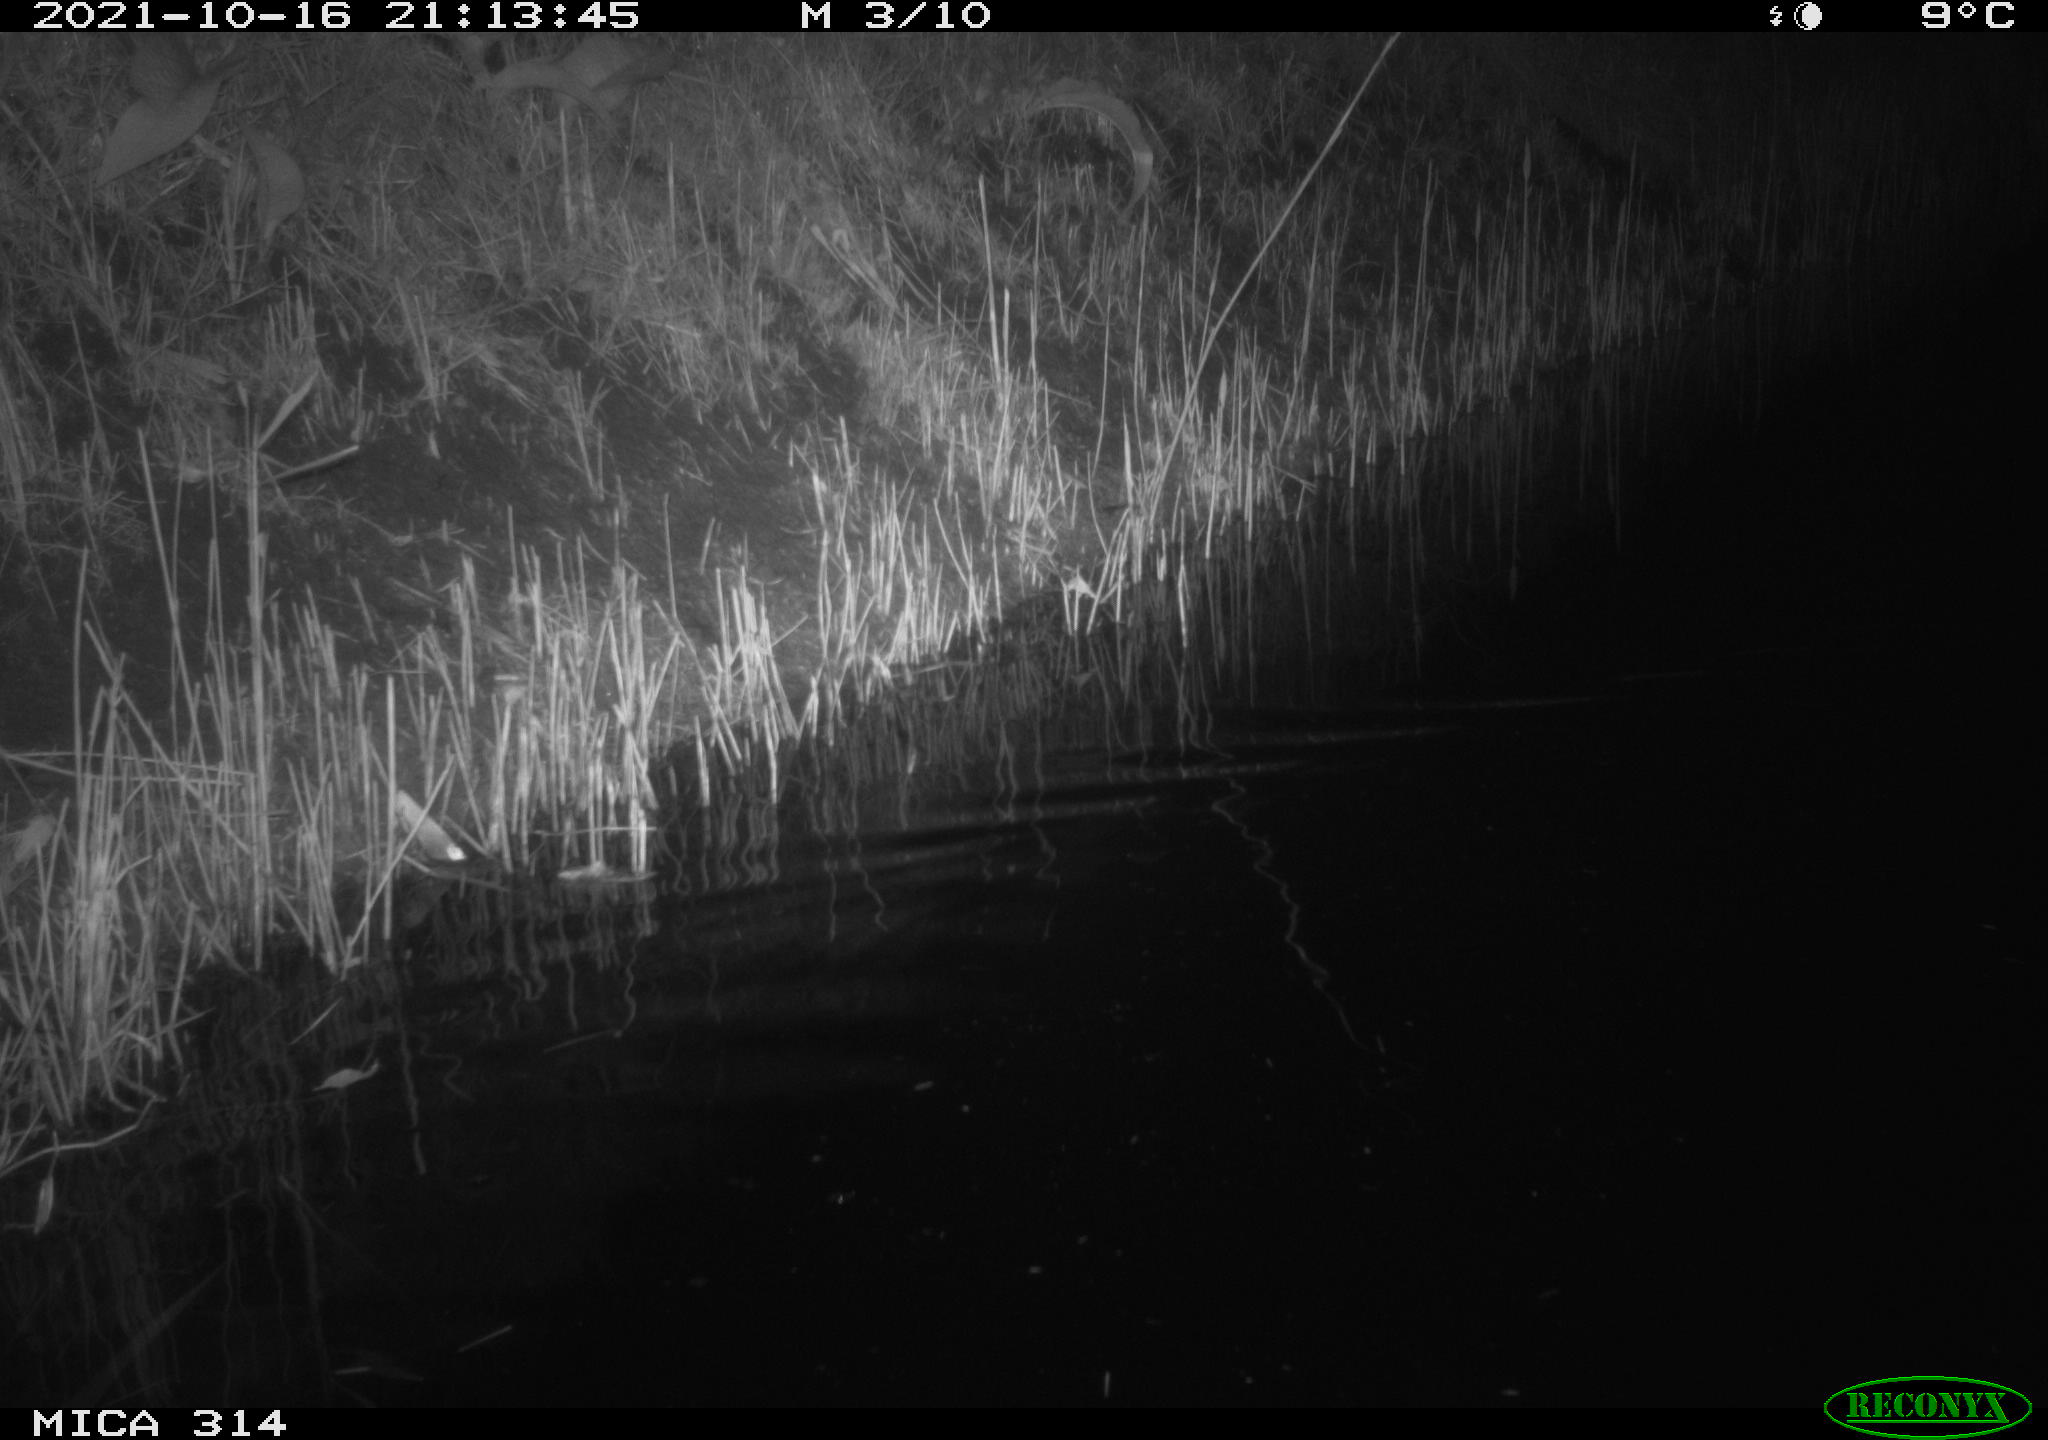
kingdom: Animalia
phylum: Chordata
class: Mammalia
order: Rodentia
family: Muridae
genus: Rattus
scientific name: Rattus norvegicus
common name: Brown rat
